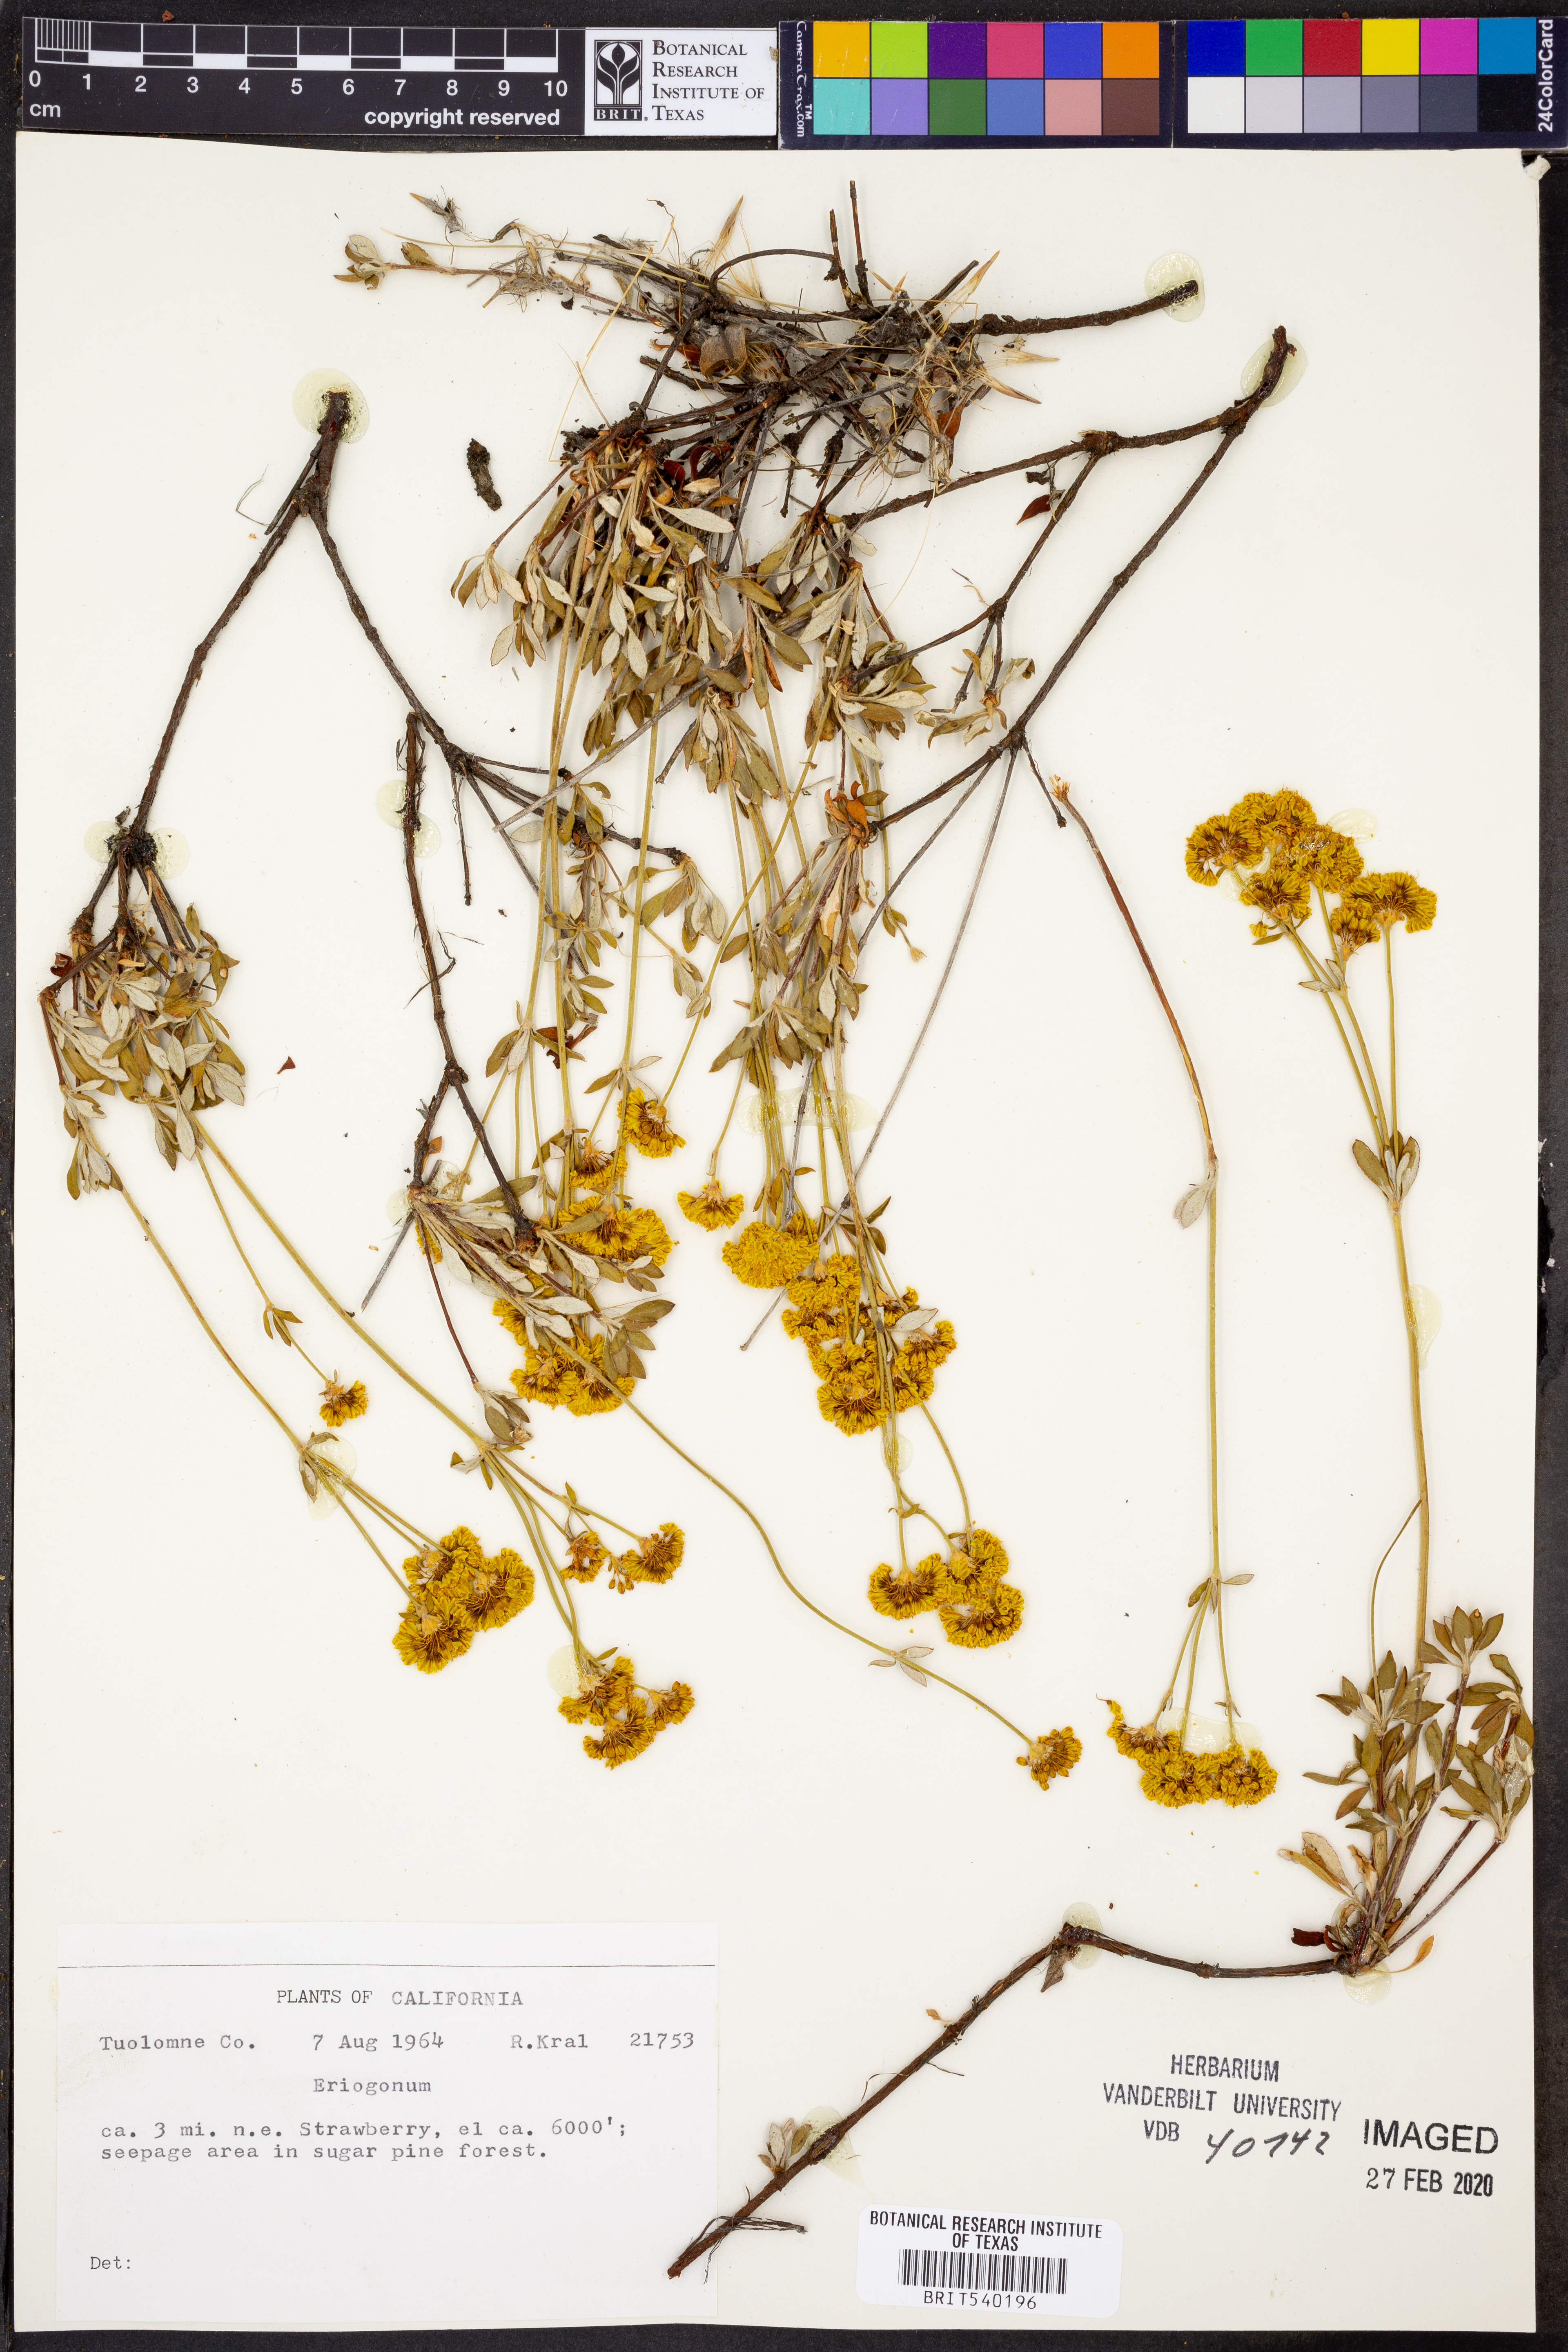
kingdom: Plantae
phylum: Tracheophyta
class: Magnoliopsida
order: Caryophyllales
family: Polygonaceae
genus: Eriogonum
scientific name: Eriogonum
